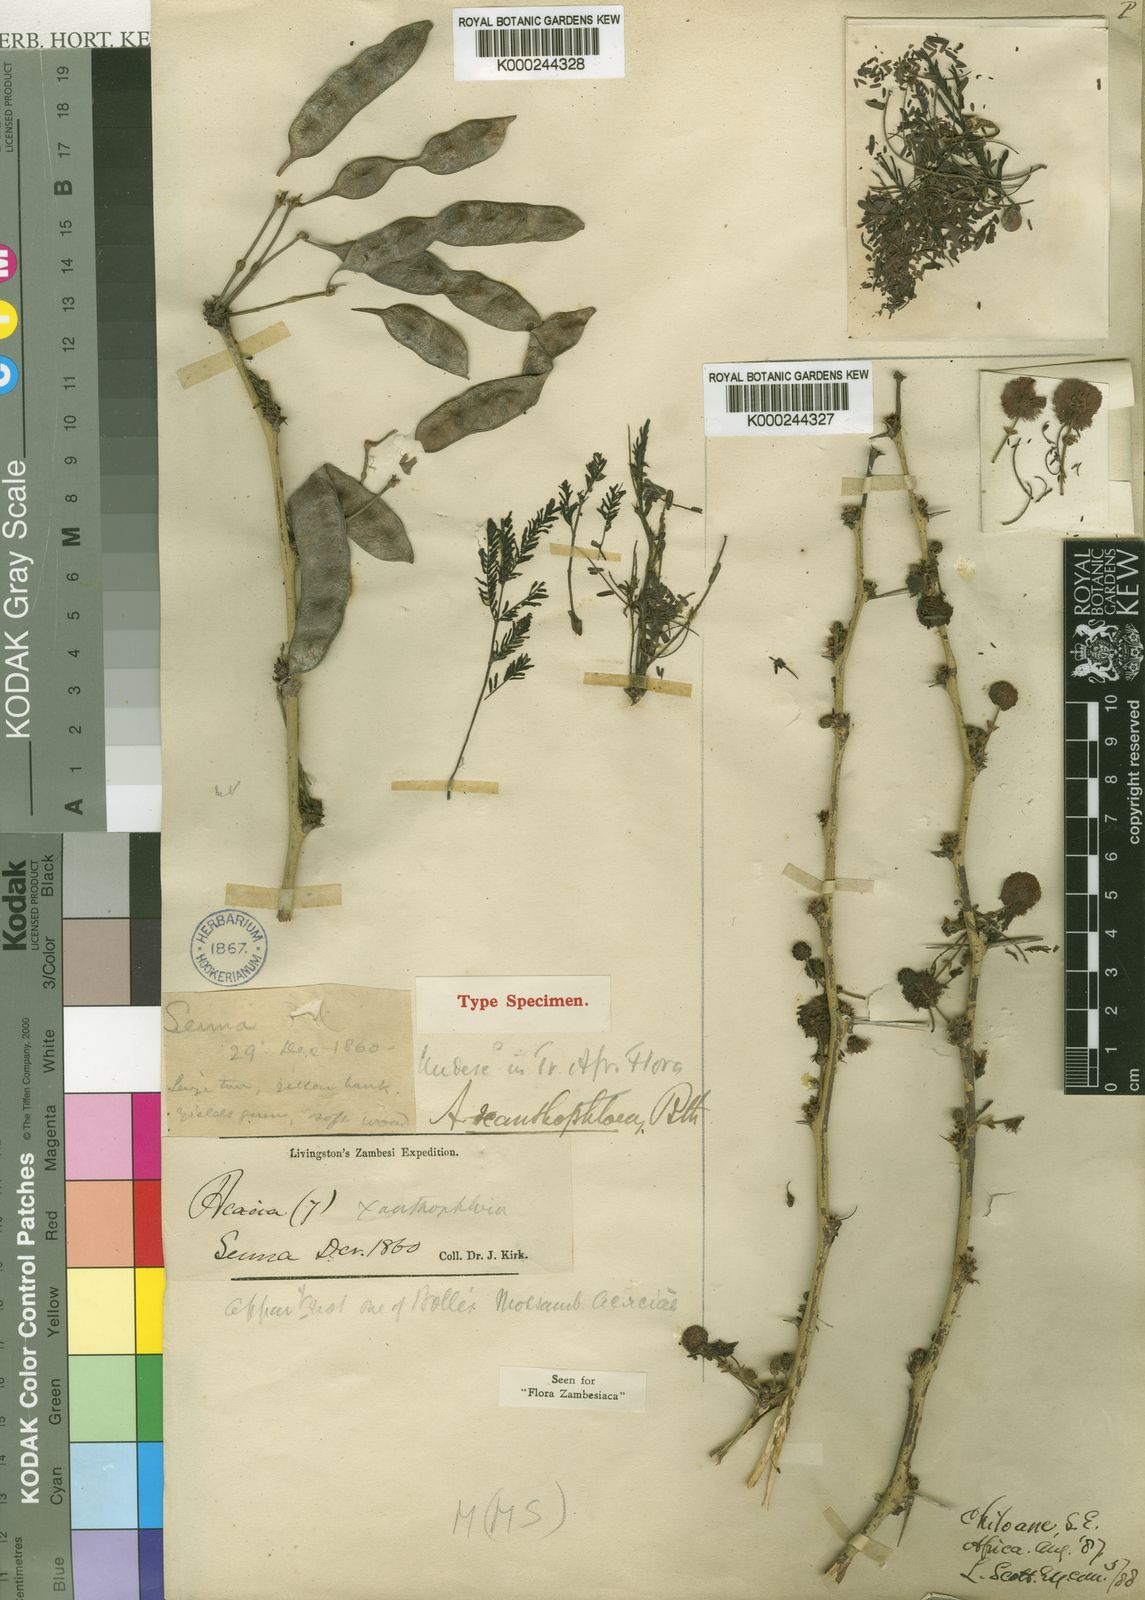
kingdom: Plantae
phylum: Tracheophyta
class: Magnoliopsida
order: Fabales
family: Fabaceae
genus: Vachellia
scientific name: Vachellia xanthophloea
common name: Fever tree
